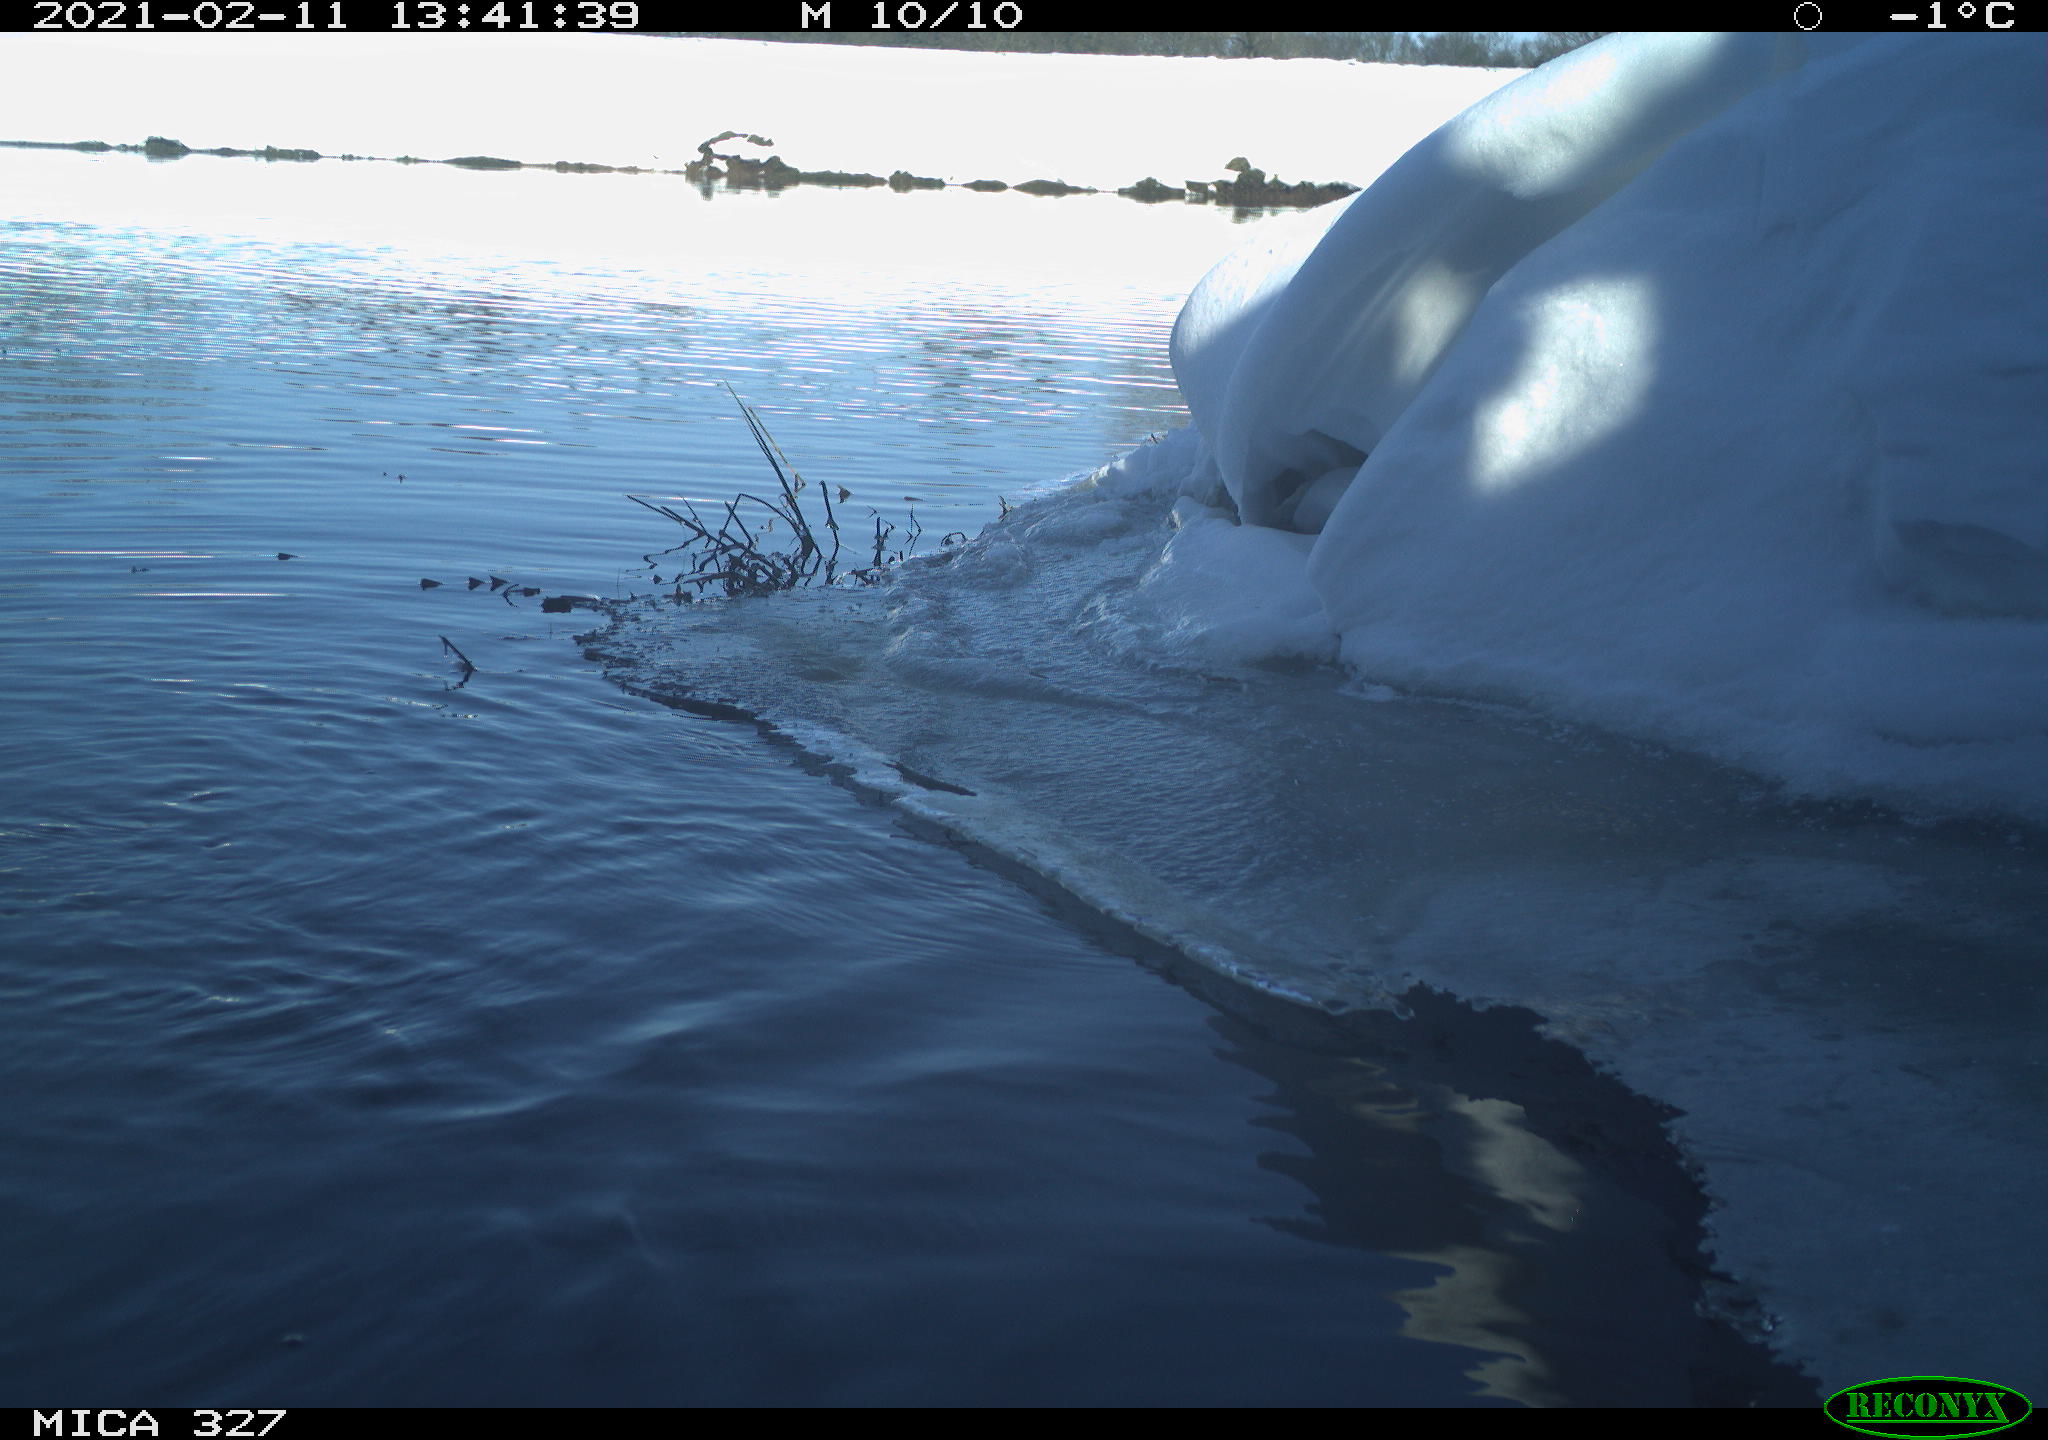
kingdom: Animalia
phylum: Chordata
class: Aves
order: Suliformes
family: Phalacrocoracidae
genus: Phalacrocorax
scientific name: Phalacrocorax carbo
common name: Great cormorant
